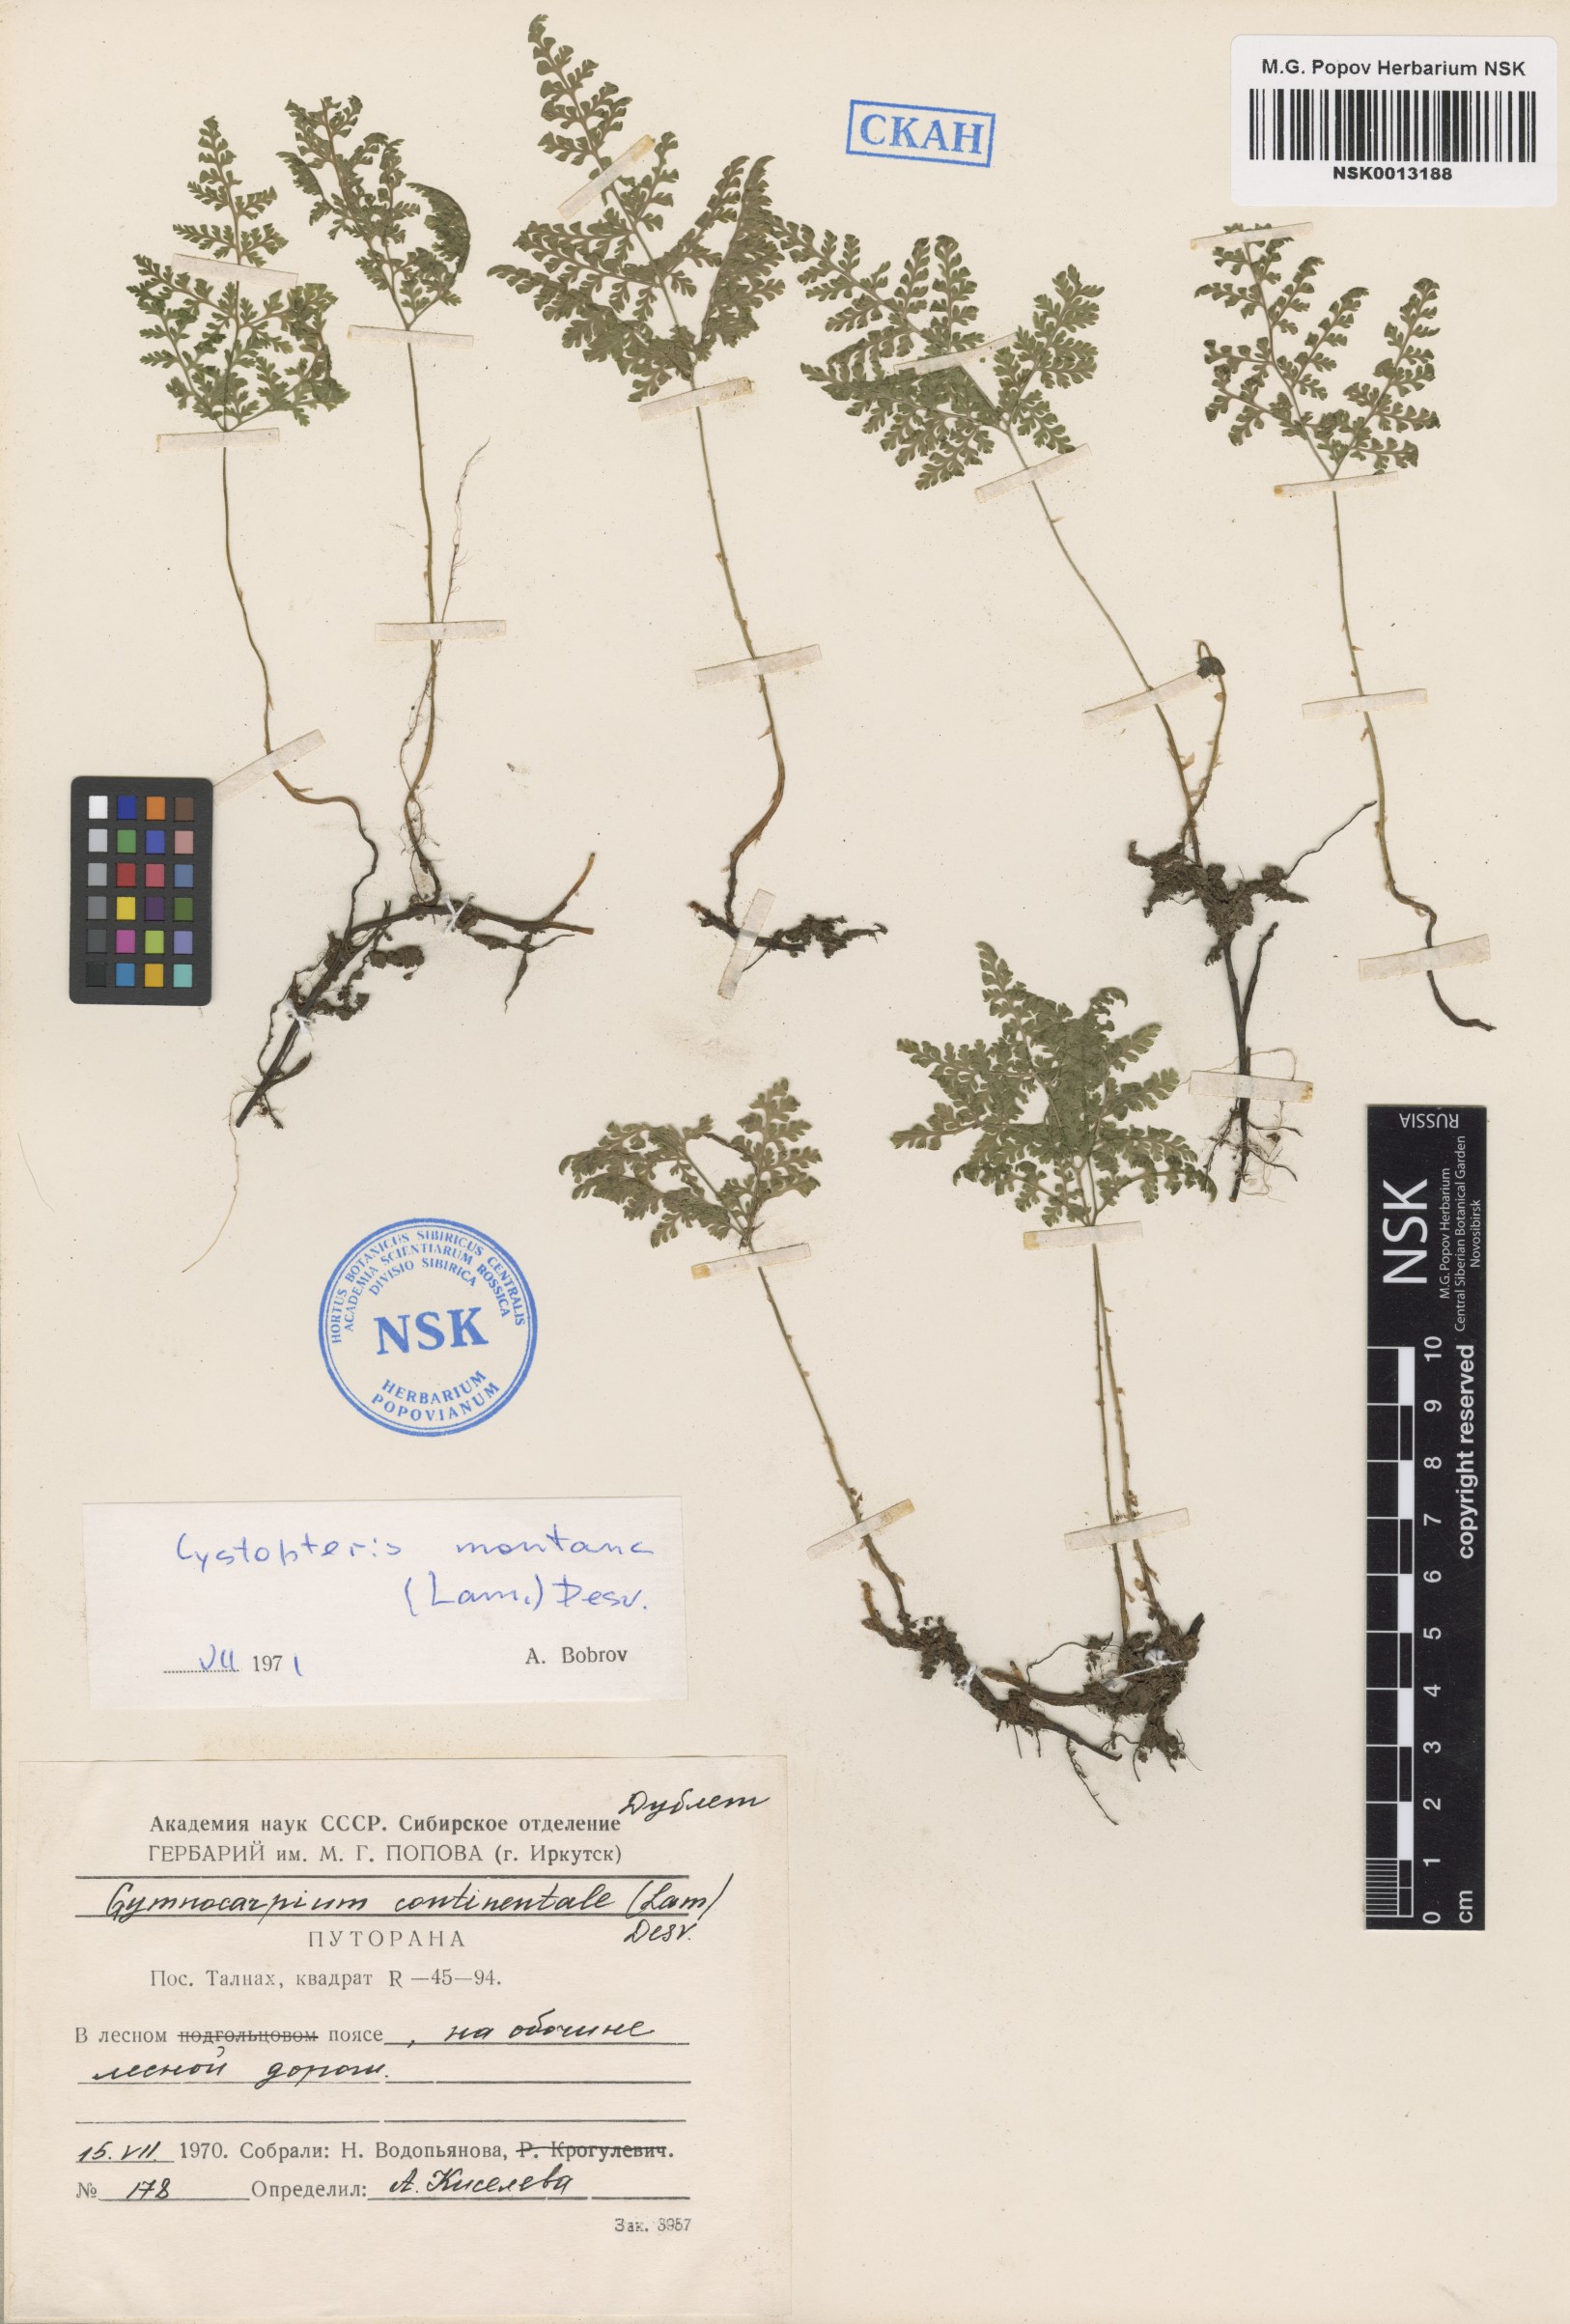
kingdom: Plantae
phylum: Tracheophyta
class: Polypodiopsida
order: Polypodiales
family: Cystopteridaceae
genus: Cystopteris
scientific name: Cystopteris montana
